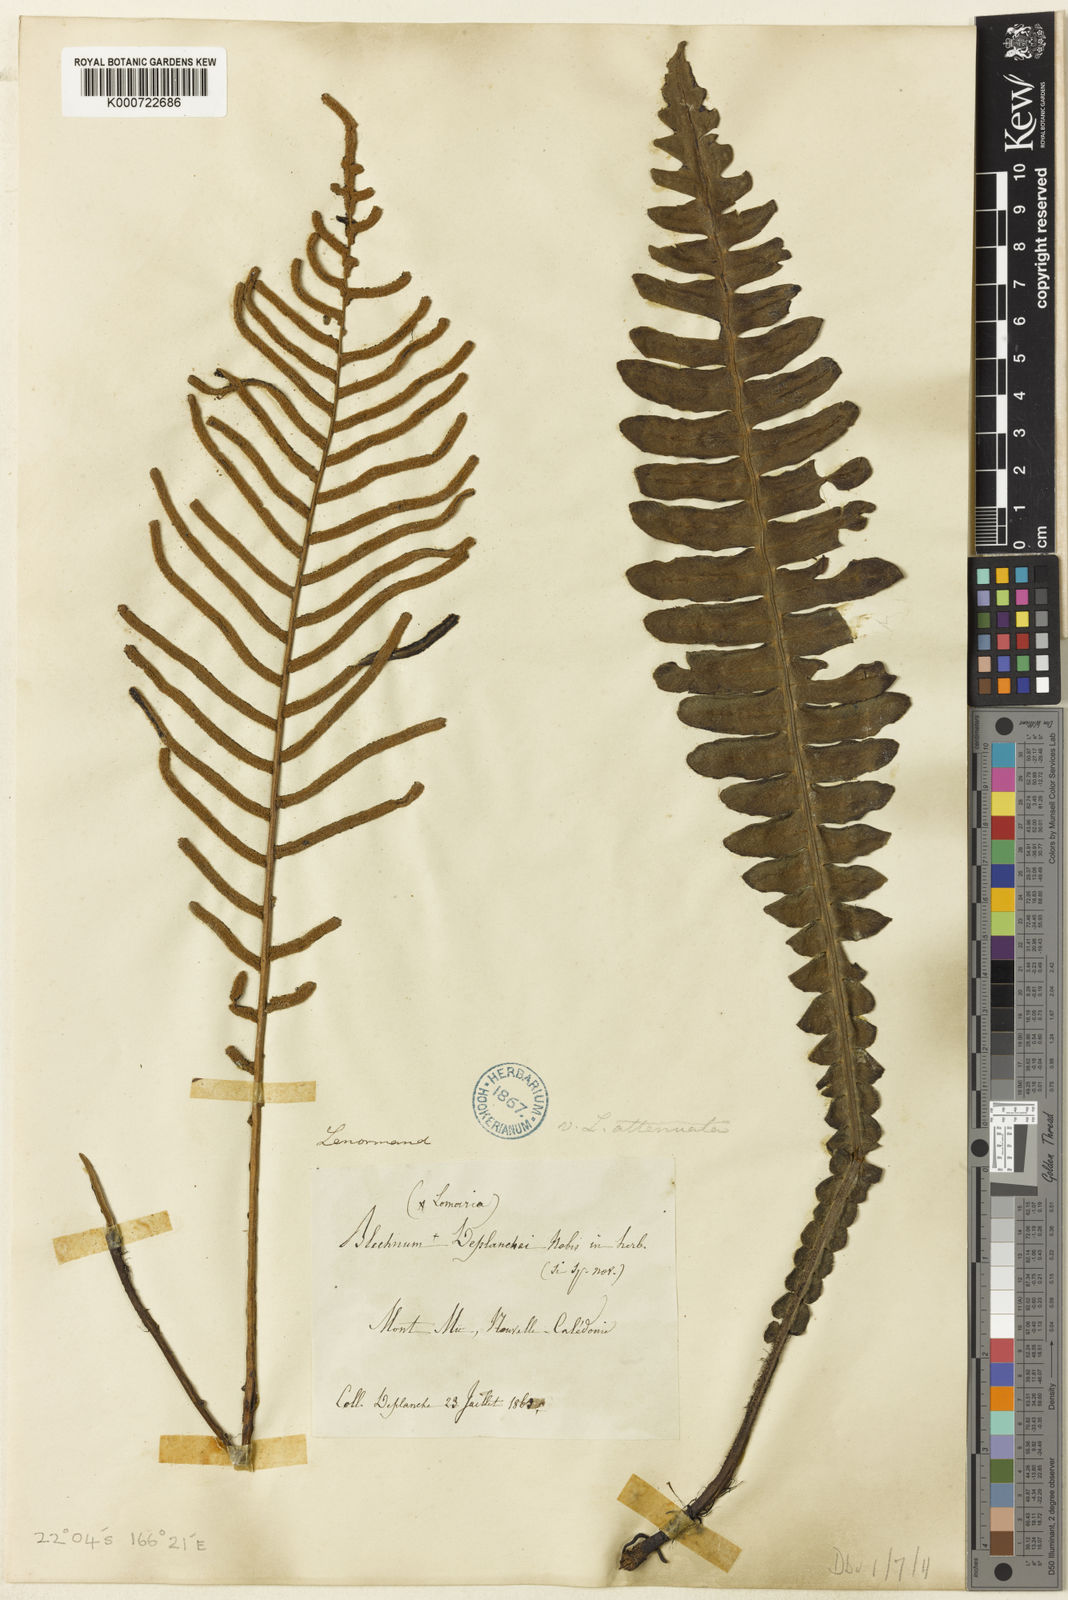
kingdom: Plantae
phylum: Tracheophyta
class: Polypodiopsida
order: Polypodiales
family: Blechnaceae
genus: Cranfillia
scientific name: Cranfillia opaca
